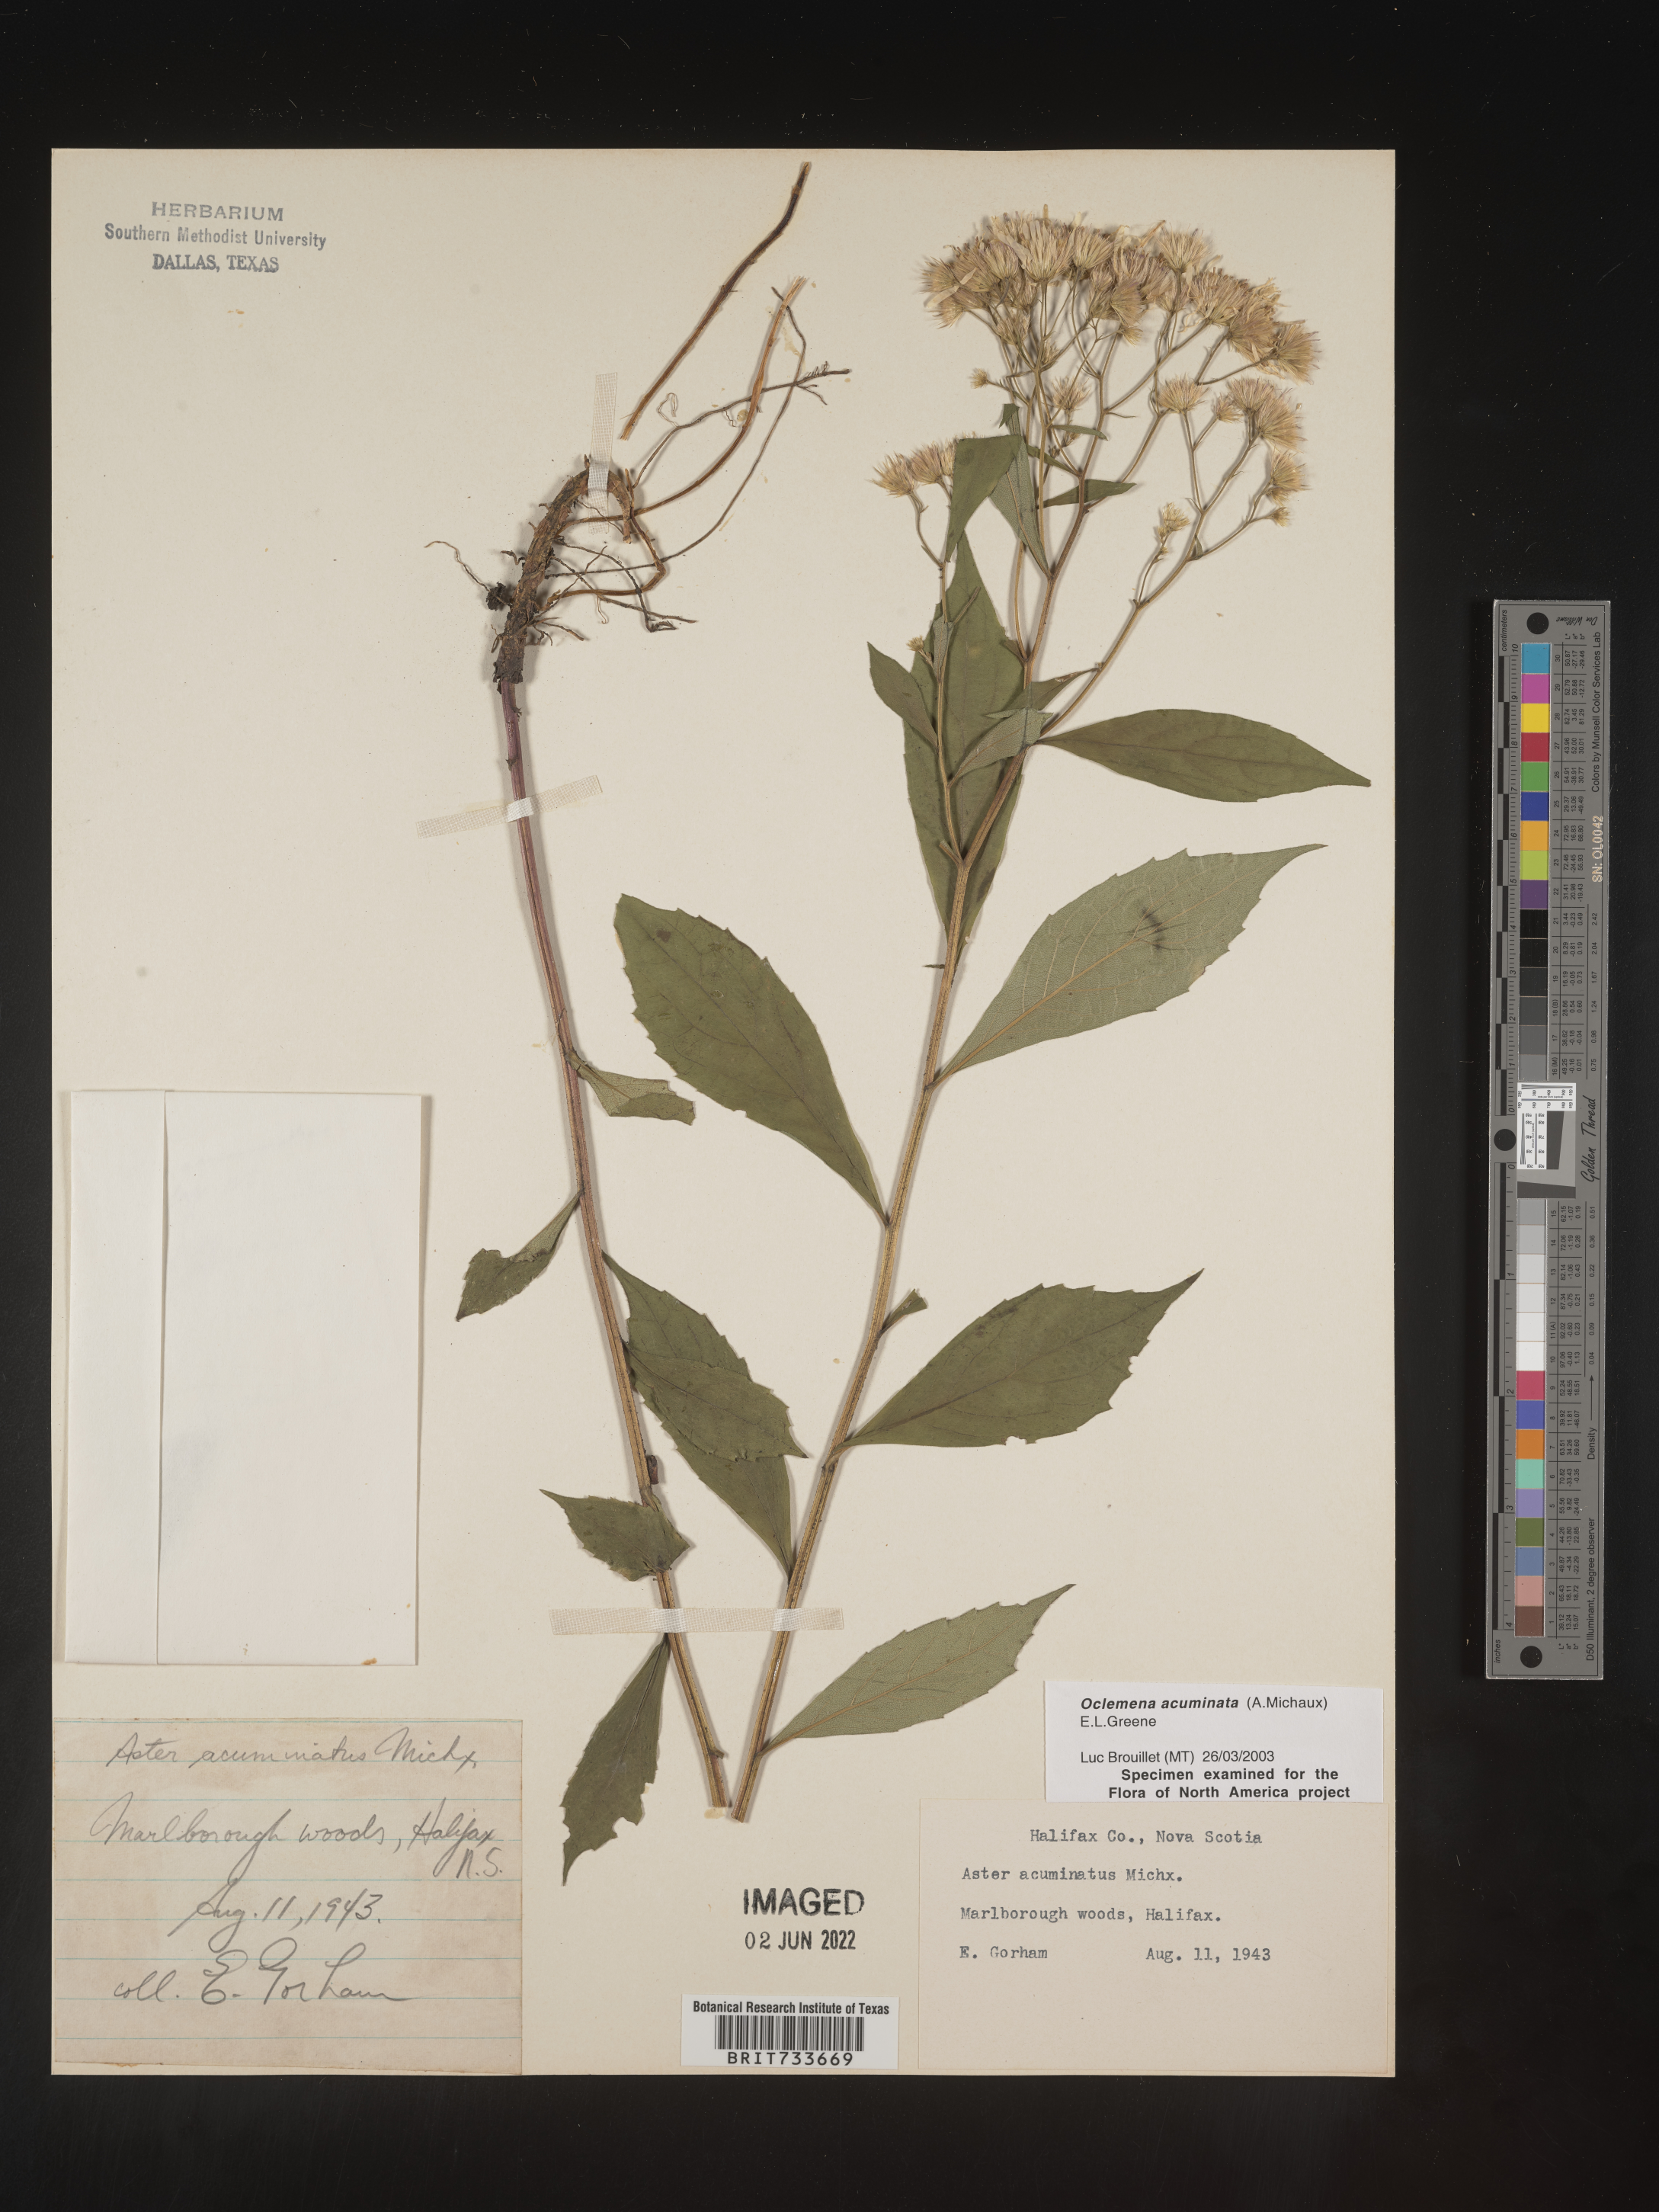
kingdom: Plantae
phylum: Tracheophyta
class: Magnoliopsida
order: Asterales
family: Asteraceae
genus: Oclemena
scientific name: Oclemena acuminata
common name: Mountain aster
